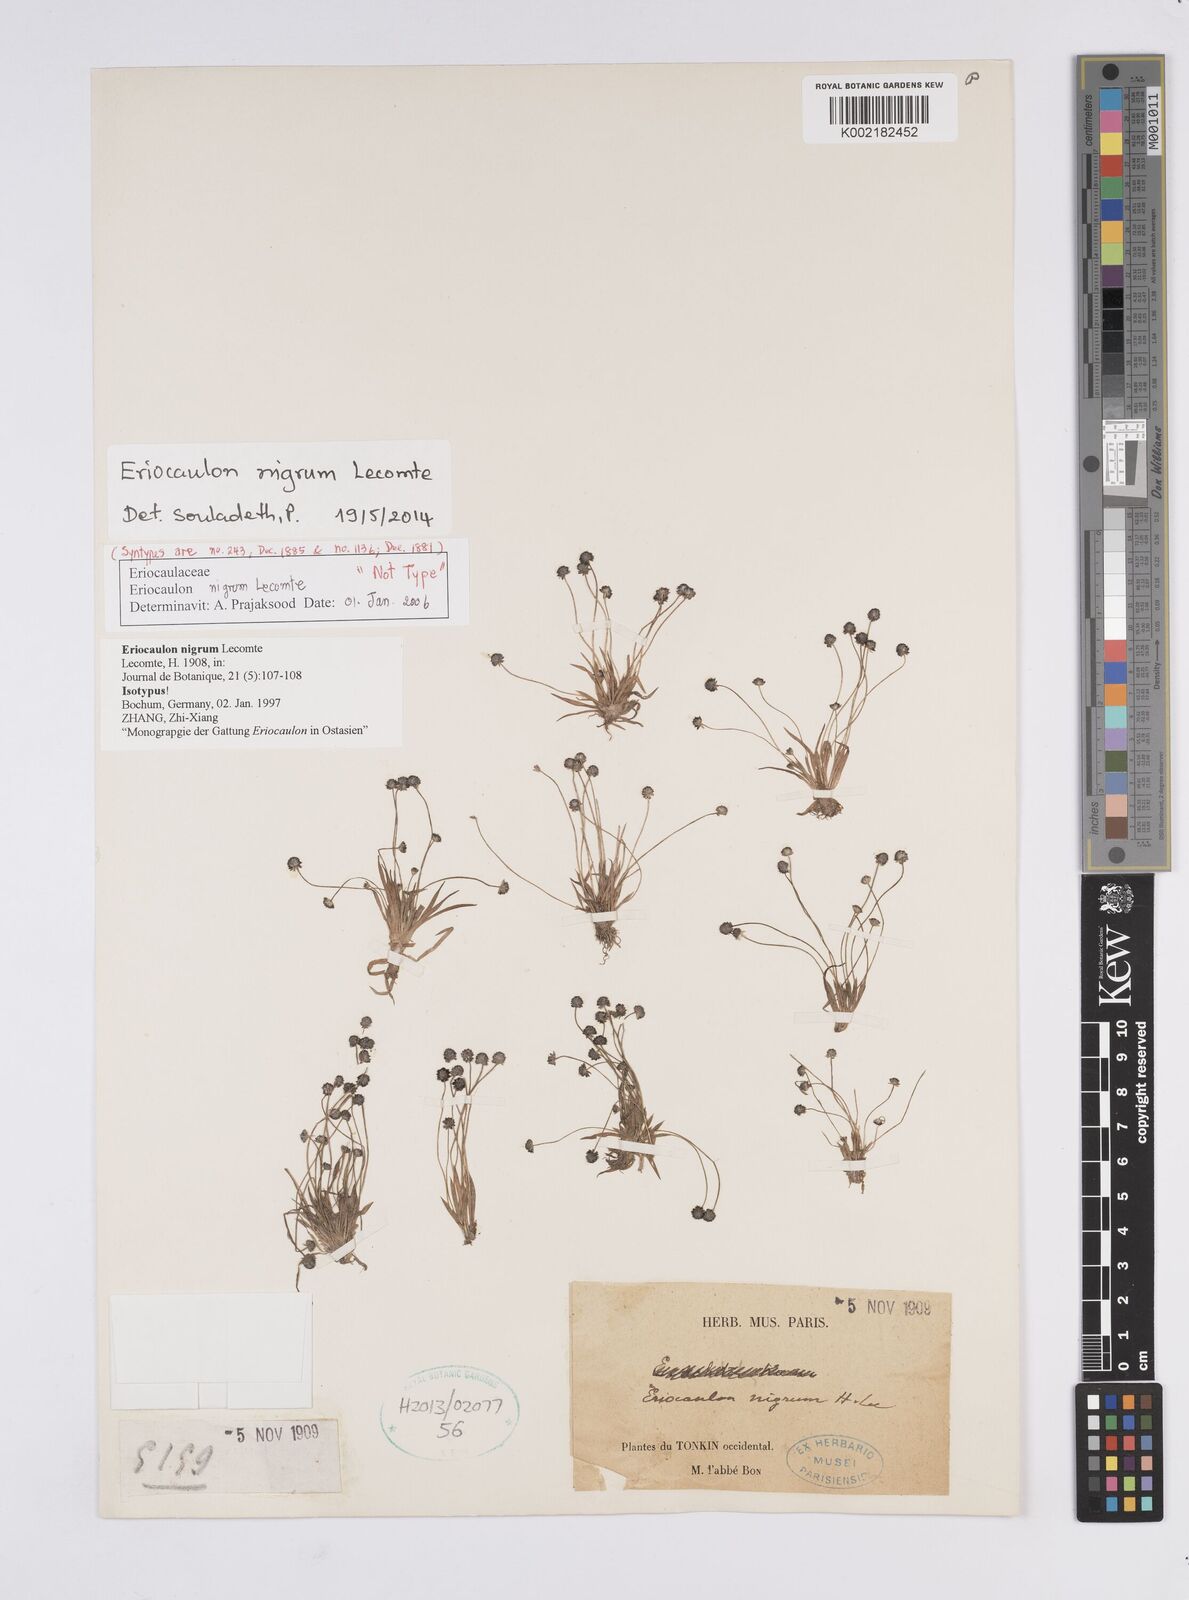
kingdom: Plantae
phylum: Tracheophyta
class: Liliopsida
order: Poales
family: Eriocaulaceae
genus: Eriocaulon
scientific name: Eriocaulon nigrum
